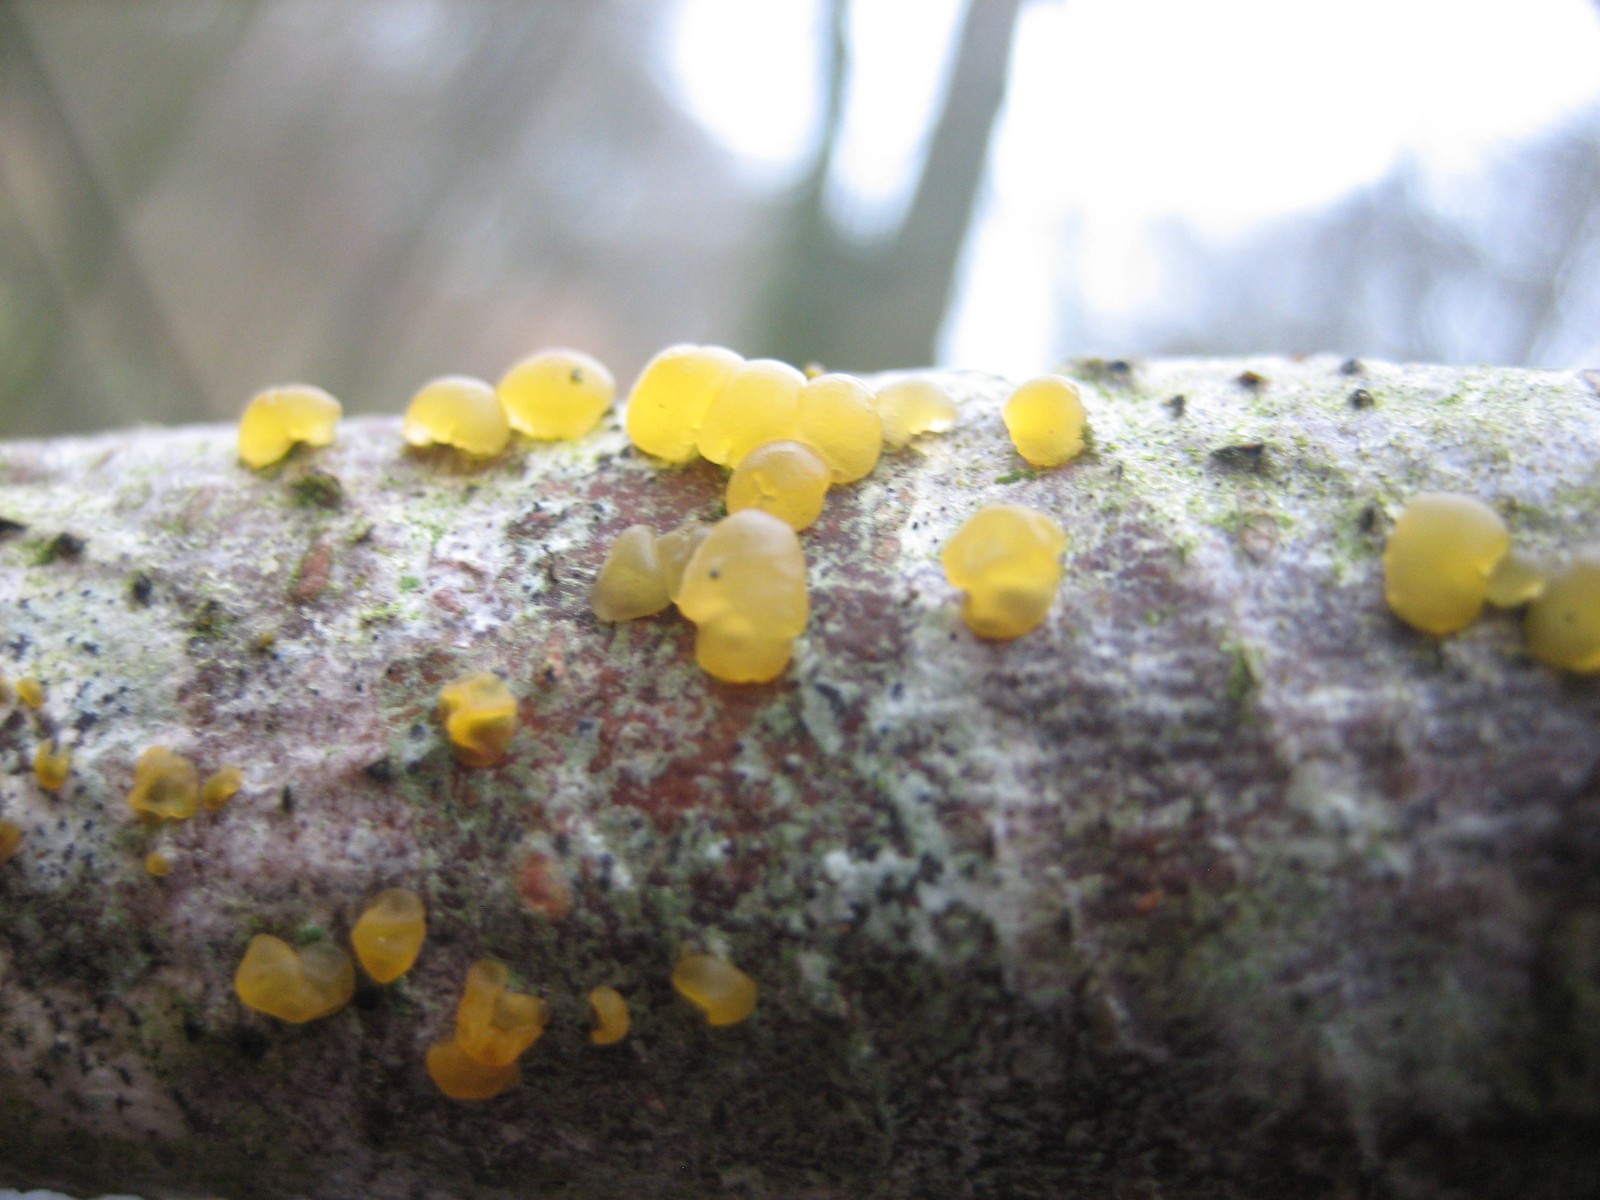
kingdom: Fungi
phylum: Basidiomycota
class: Dacrymycetes
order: Dacrymycetales
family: Dacrymycetaceae
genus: Dacrymyces
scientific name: Dacrymyces
